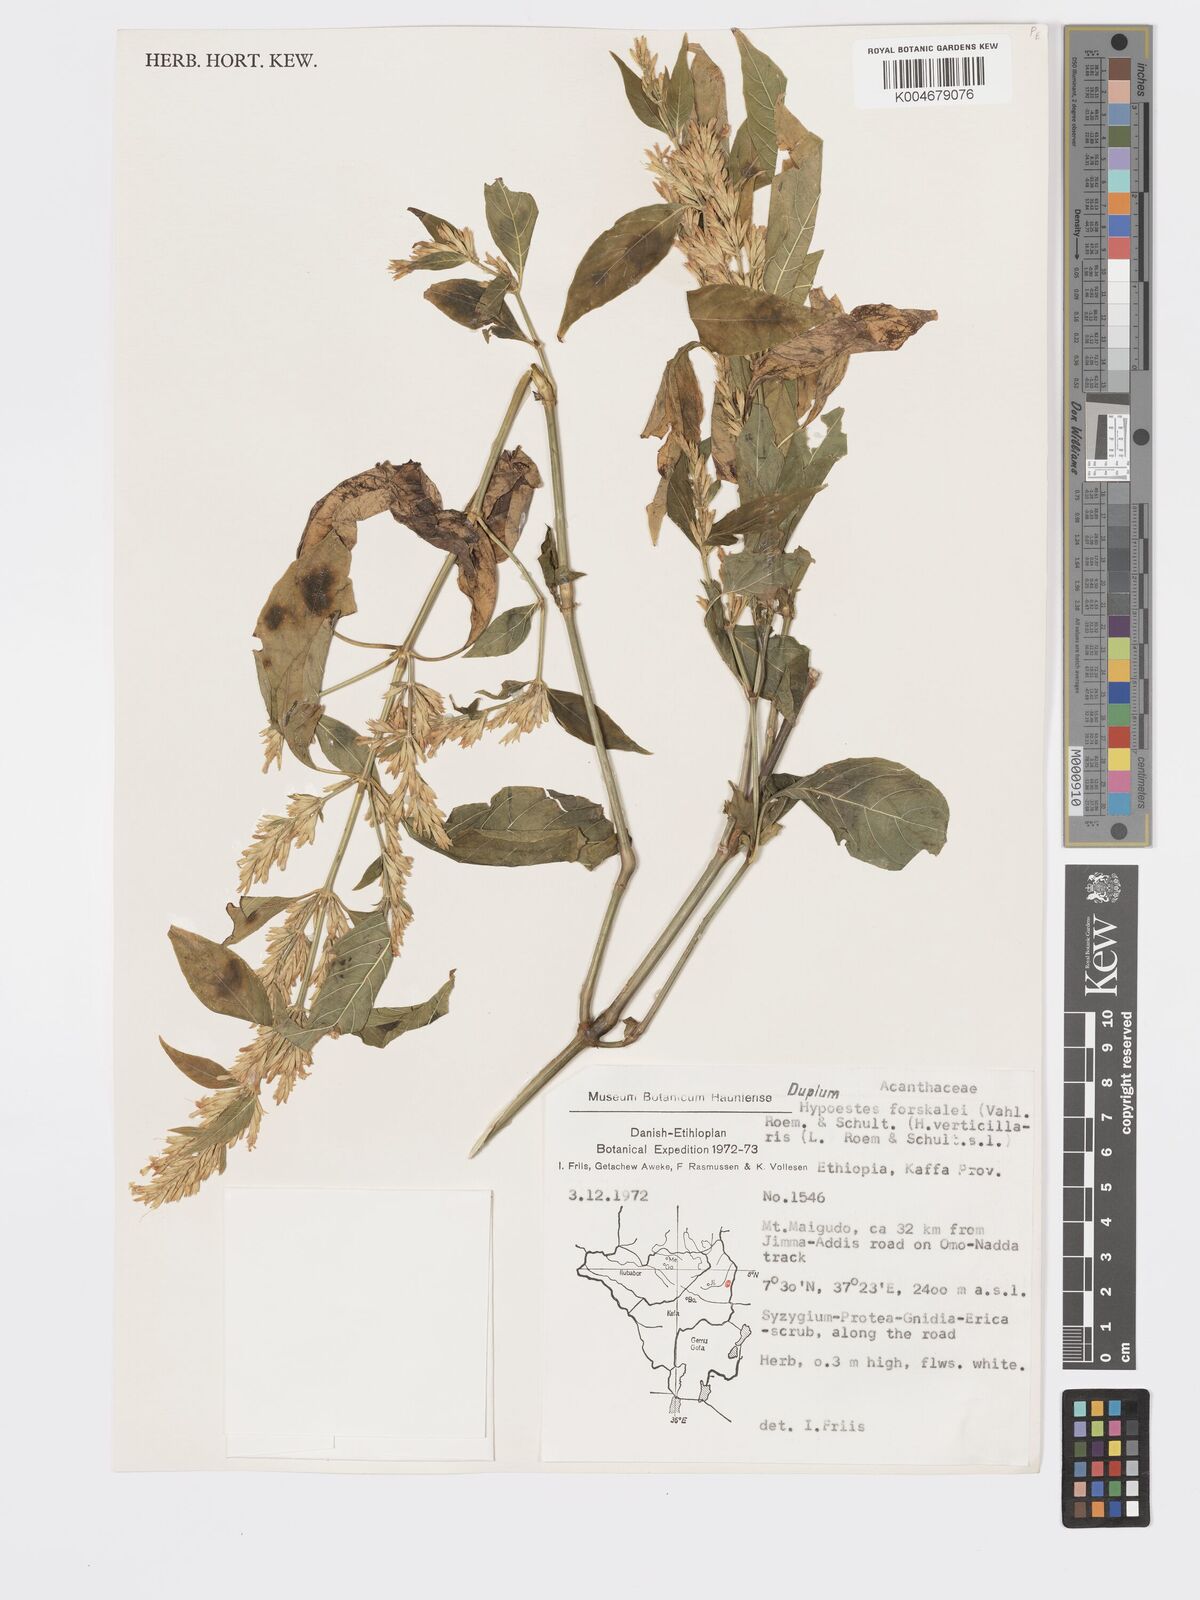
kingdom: Plantae
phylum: Tracheophyta
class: Magnoliopsida
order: Lamiales
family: Acanthaceae
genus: Hypoestes
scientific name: Hypoestes forskaolii
